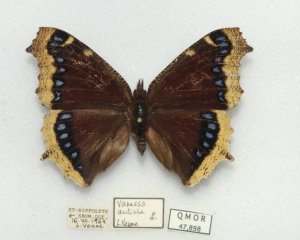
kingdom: Animalia
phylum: Arthropoda
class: Insecta
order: Lepidoptera
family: Nymphalidae
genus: Nymphalis
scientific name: Nymphalis antiopa
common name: Mourning Cloak
